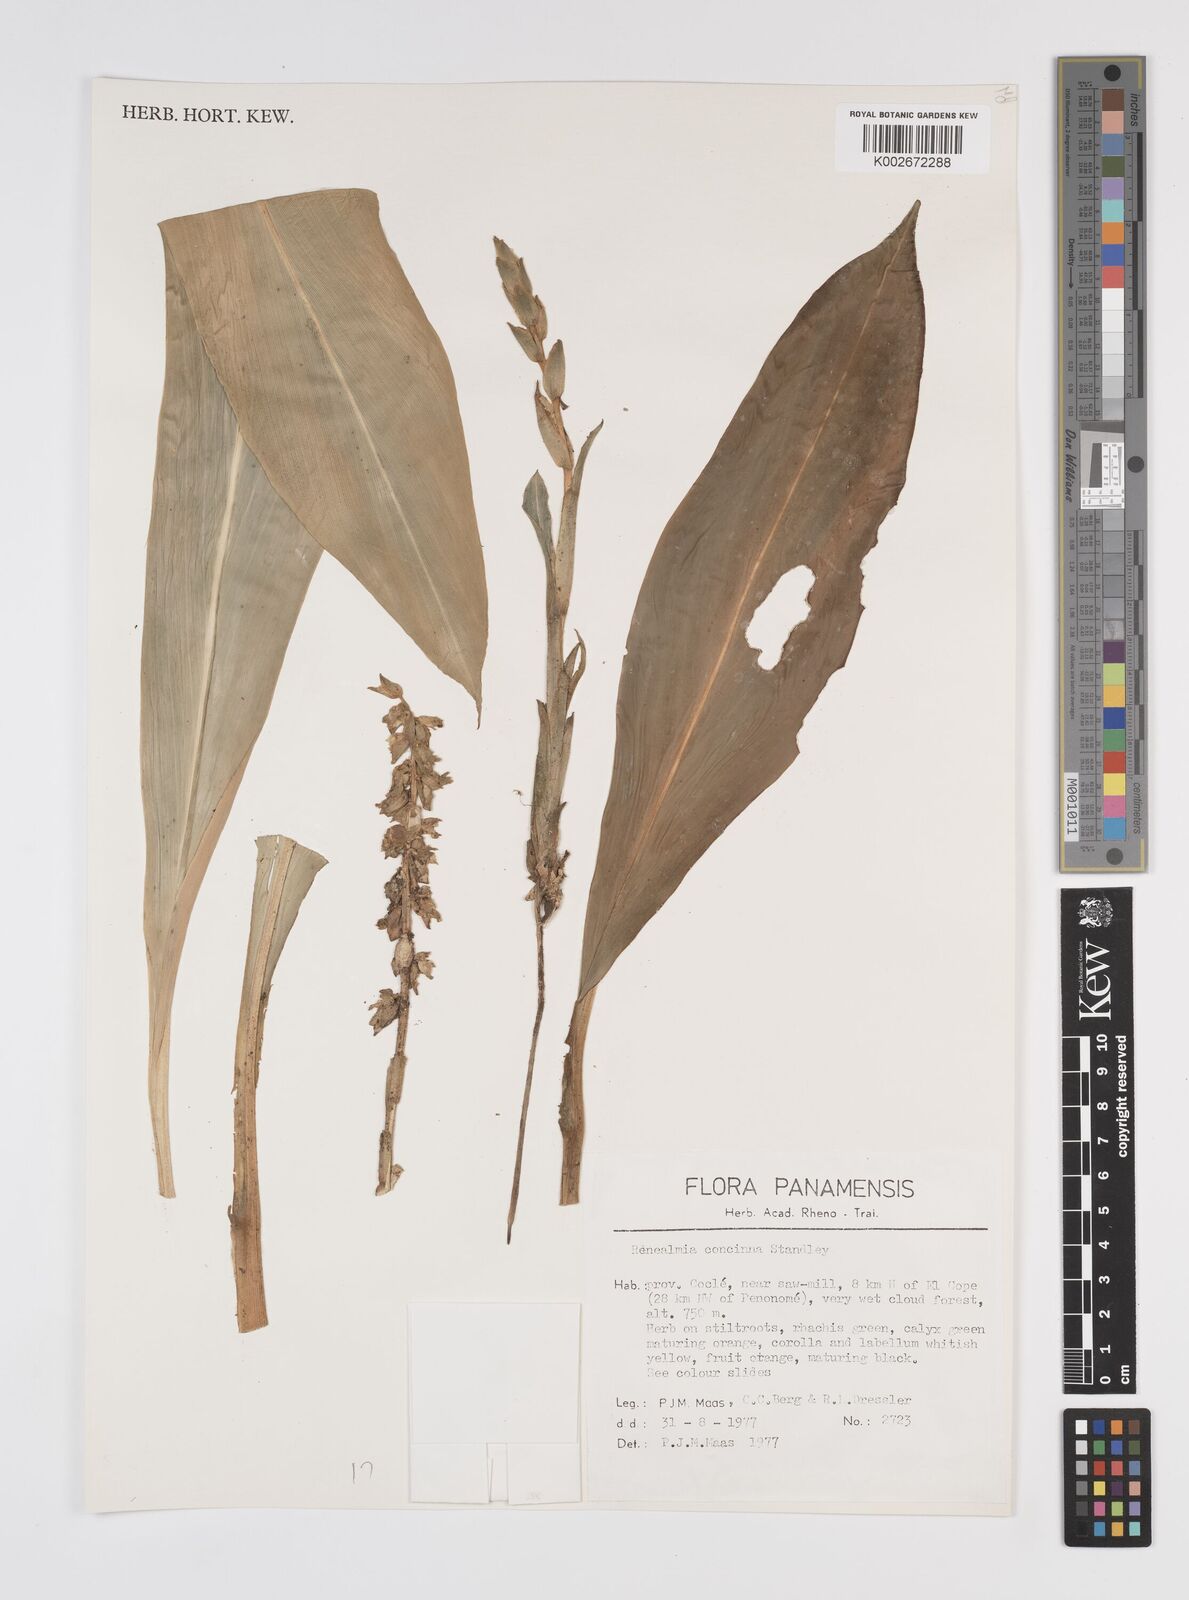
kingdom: Plantae
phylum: Tracheophyta
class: Liliopsida
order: Zingiberales
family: Zingiberaceae
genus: Renealmia
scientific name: Renealmia concinna
